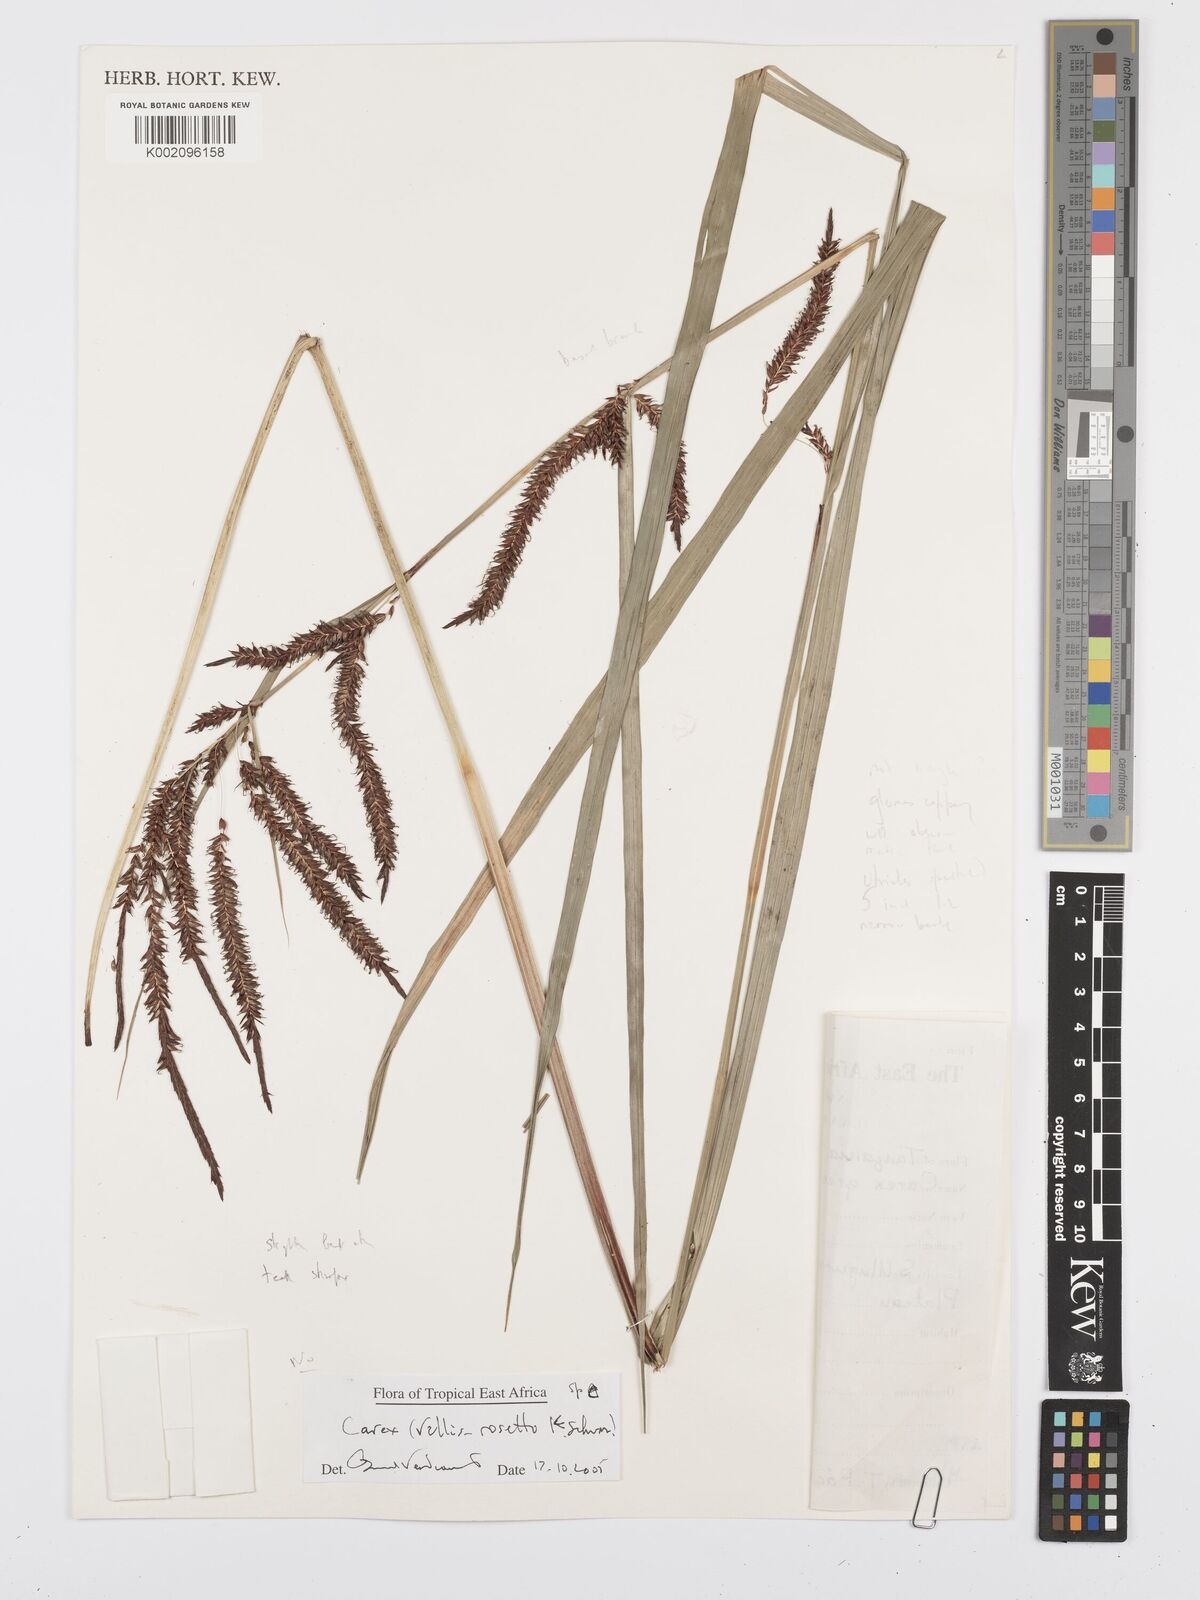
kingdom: Plantae
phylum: Tracheophyta
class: Liliopsida
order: Poales
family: Cyperaceae
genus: Carex
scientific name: Carex
